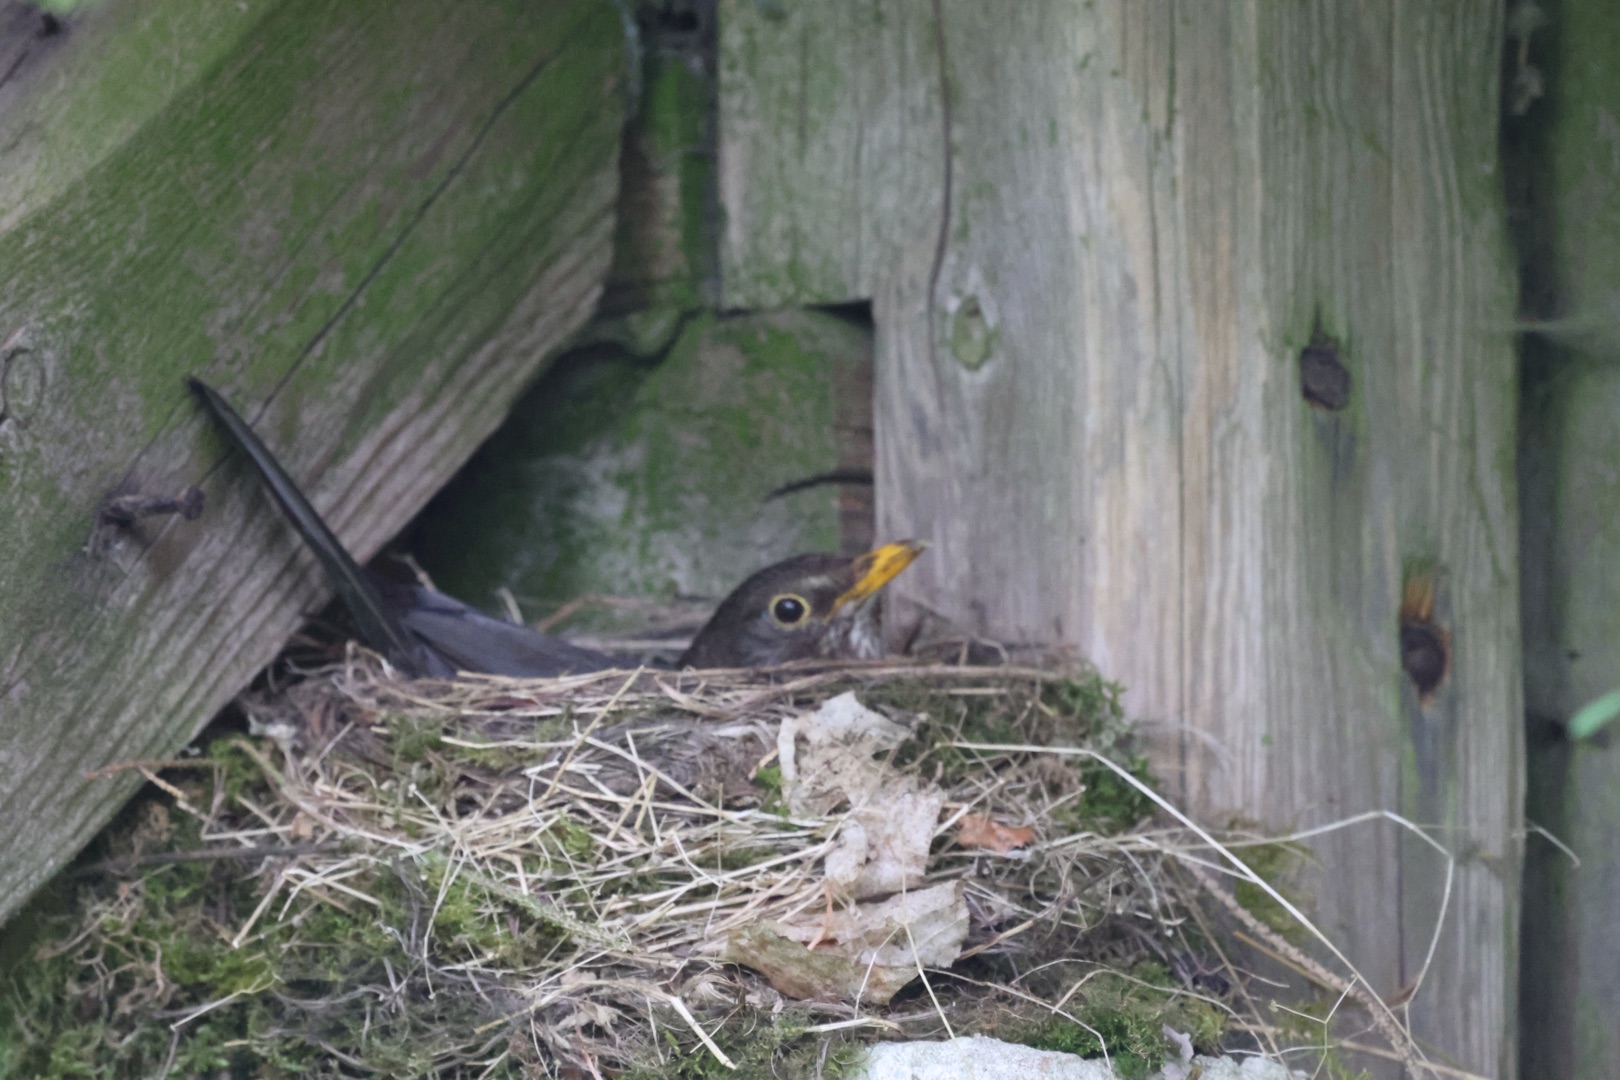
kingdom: Animalia
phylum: Chordata
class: Aves
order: Passeriformes
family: Turdidae
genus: Turdus
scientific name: Turdus merula
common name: Solsort
